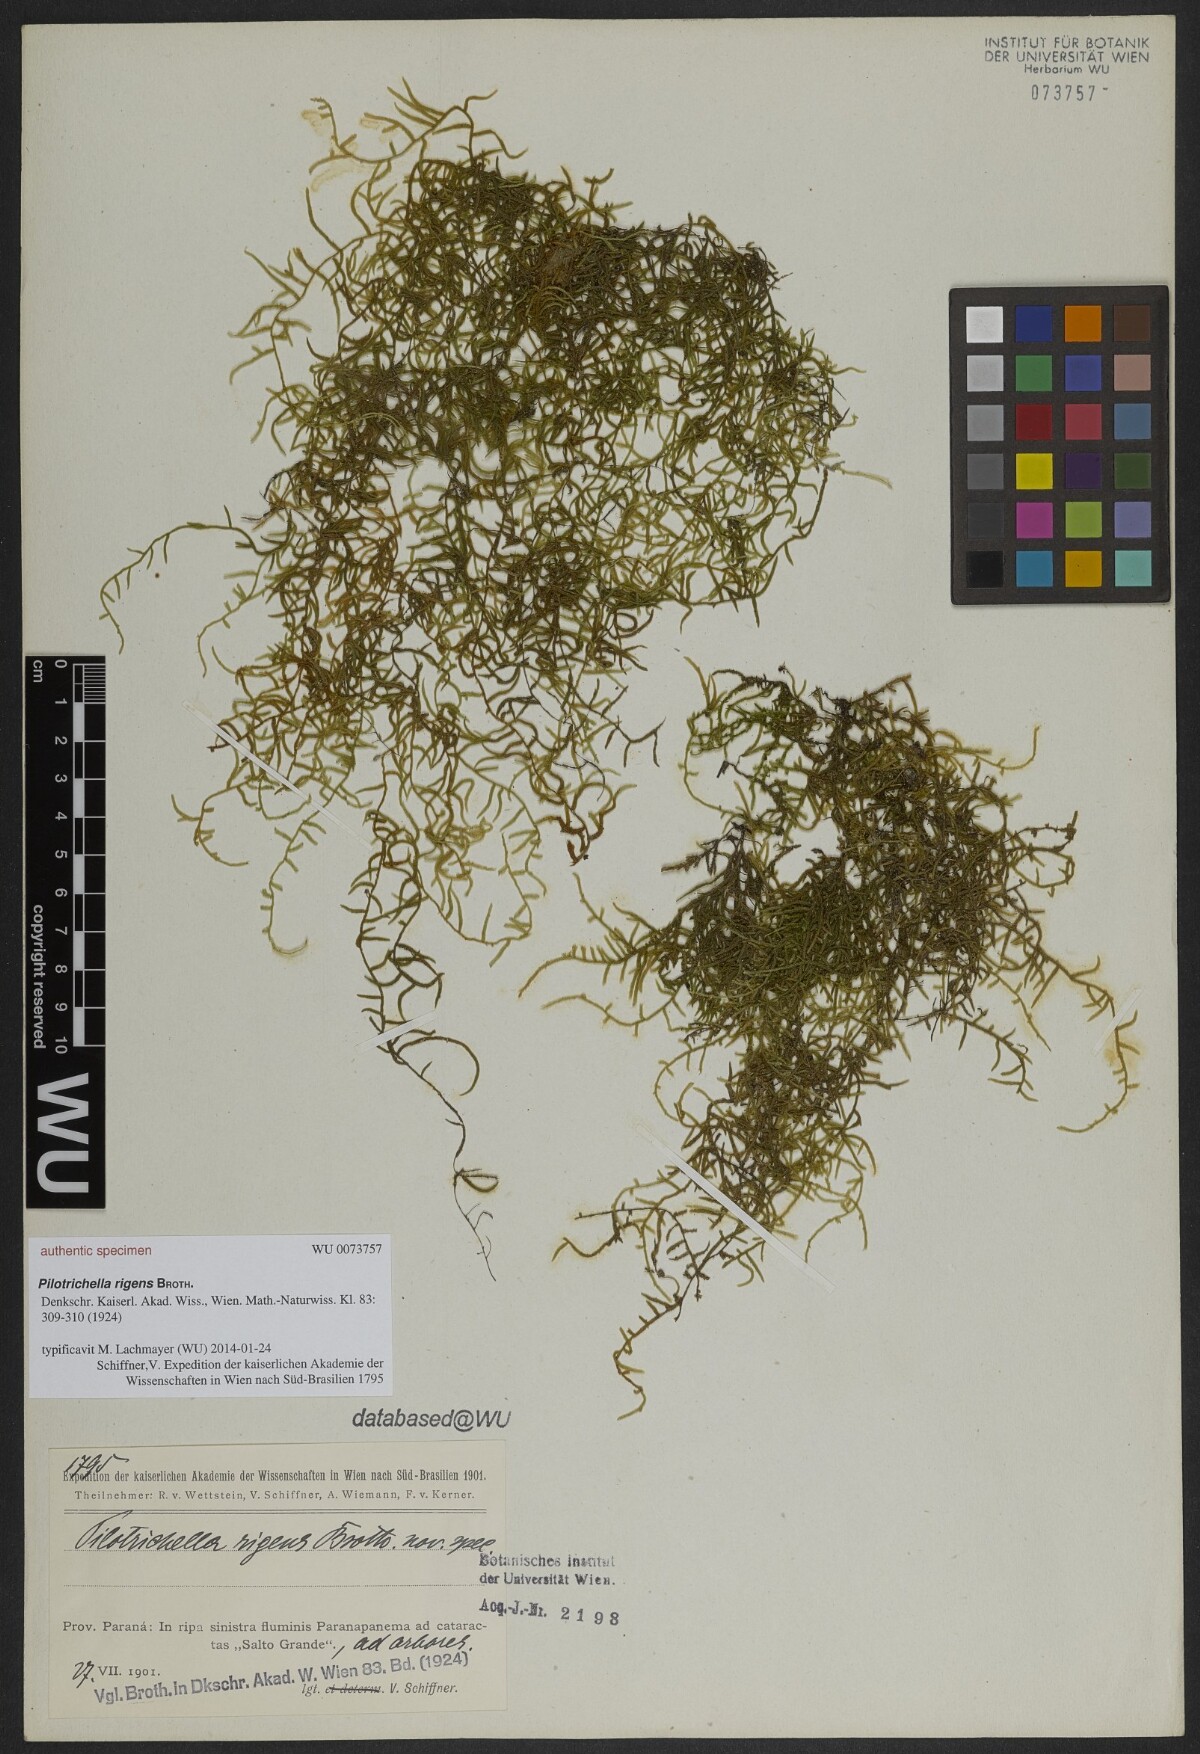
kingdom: Plantae
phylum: Bryophyta
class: Bryopsida
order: Hypnales
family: Orthostichellaceae
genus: Orthostichella
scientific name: Orthostichella pachygastrella
